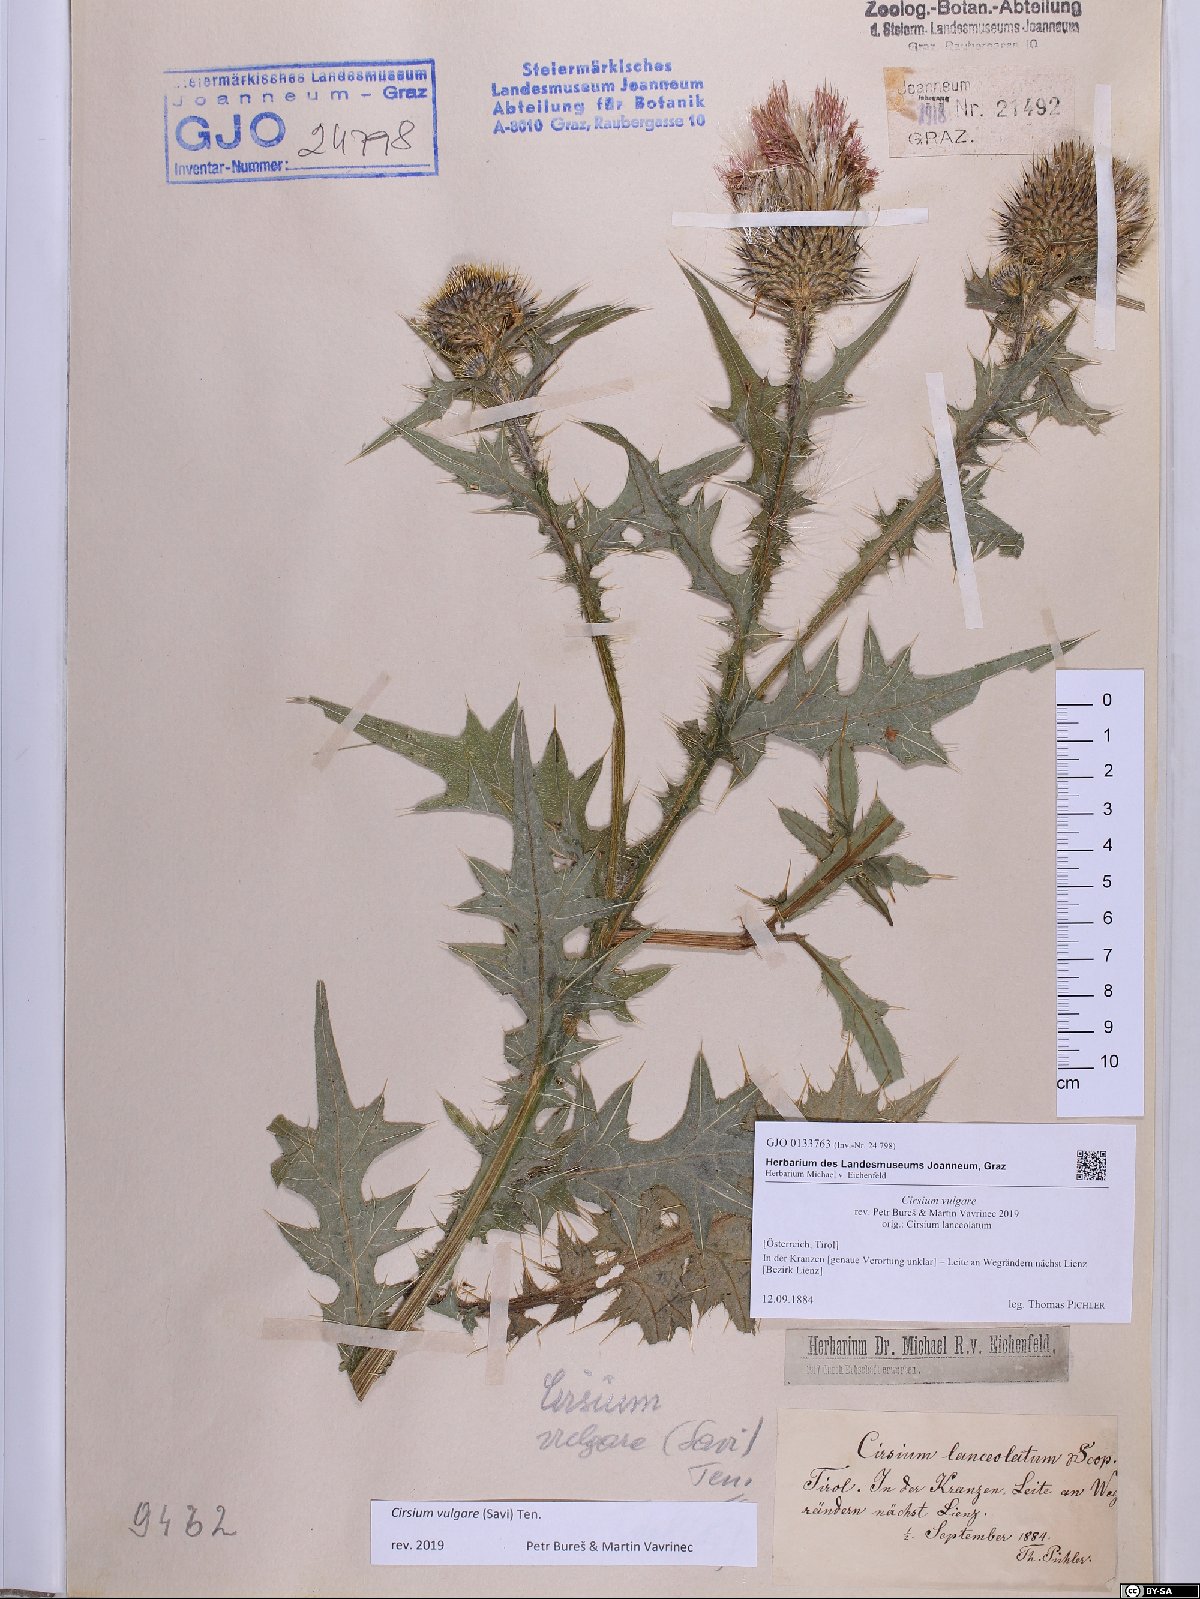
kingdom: Plantae
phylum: Tracheophyta
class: Magnoliopsida
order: Asterales
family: Asteraceae
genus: Cirsium
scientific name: Cirsium vulgare
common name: Bull thistle
